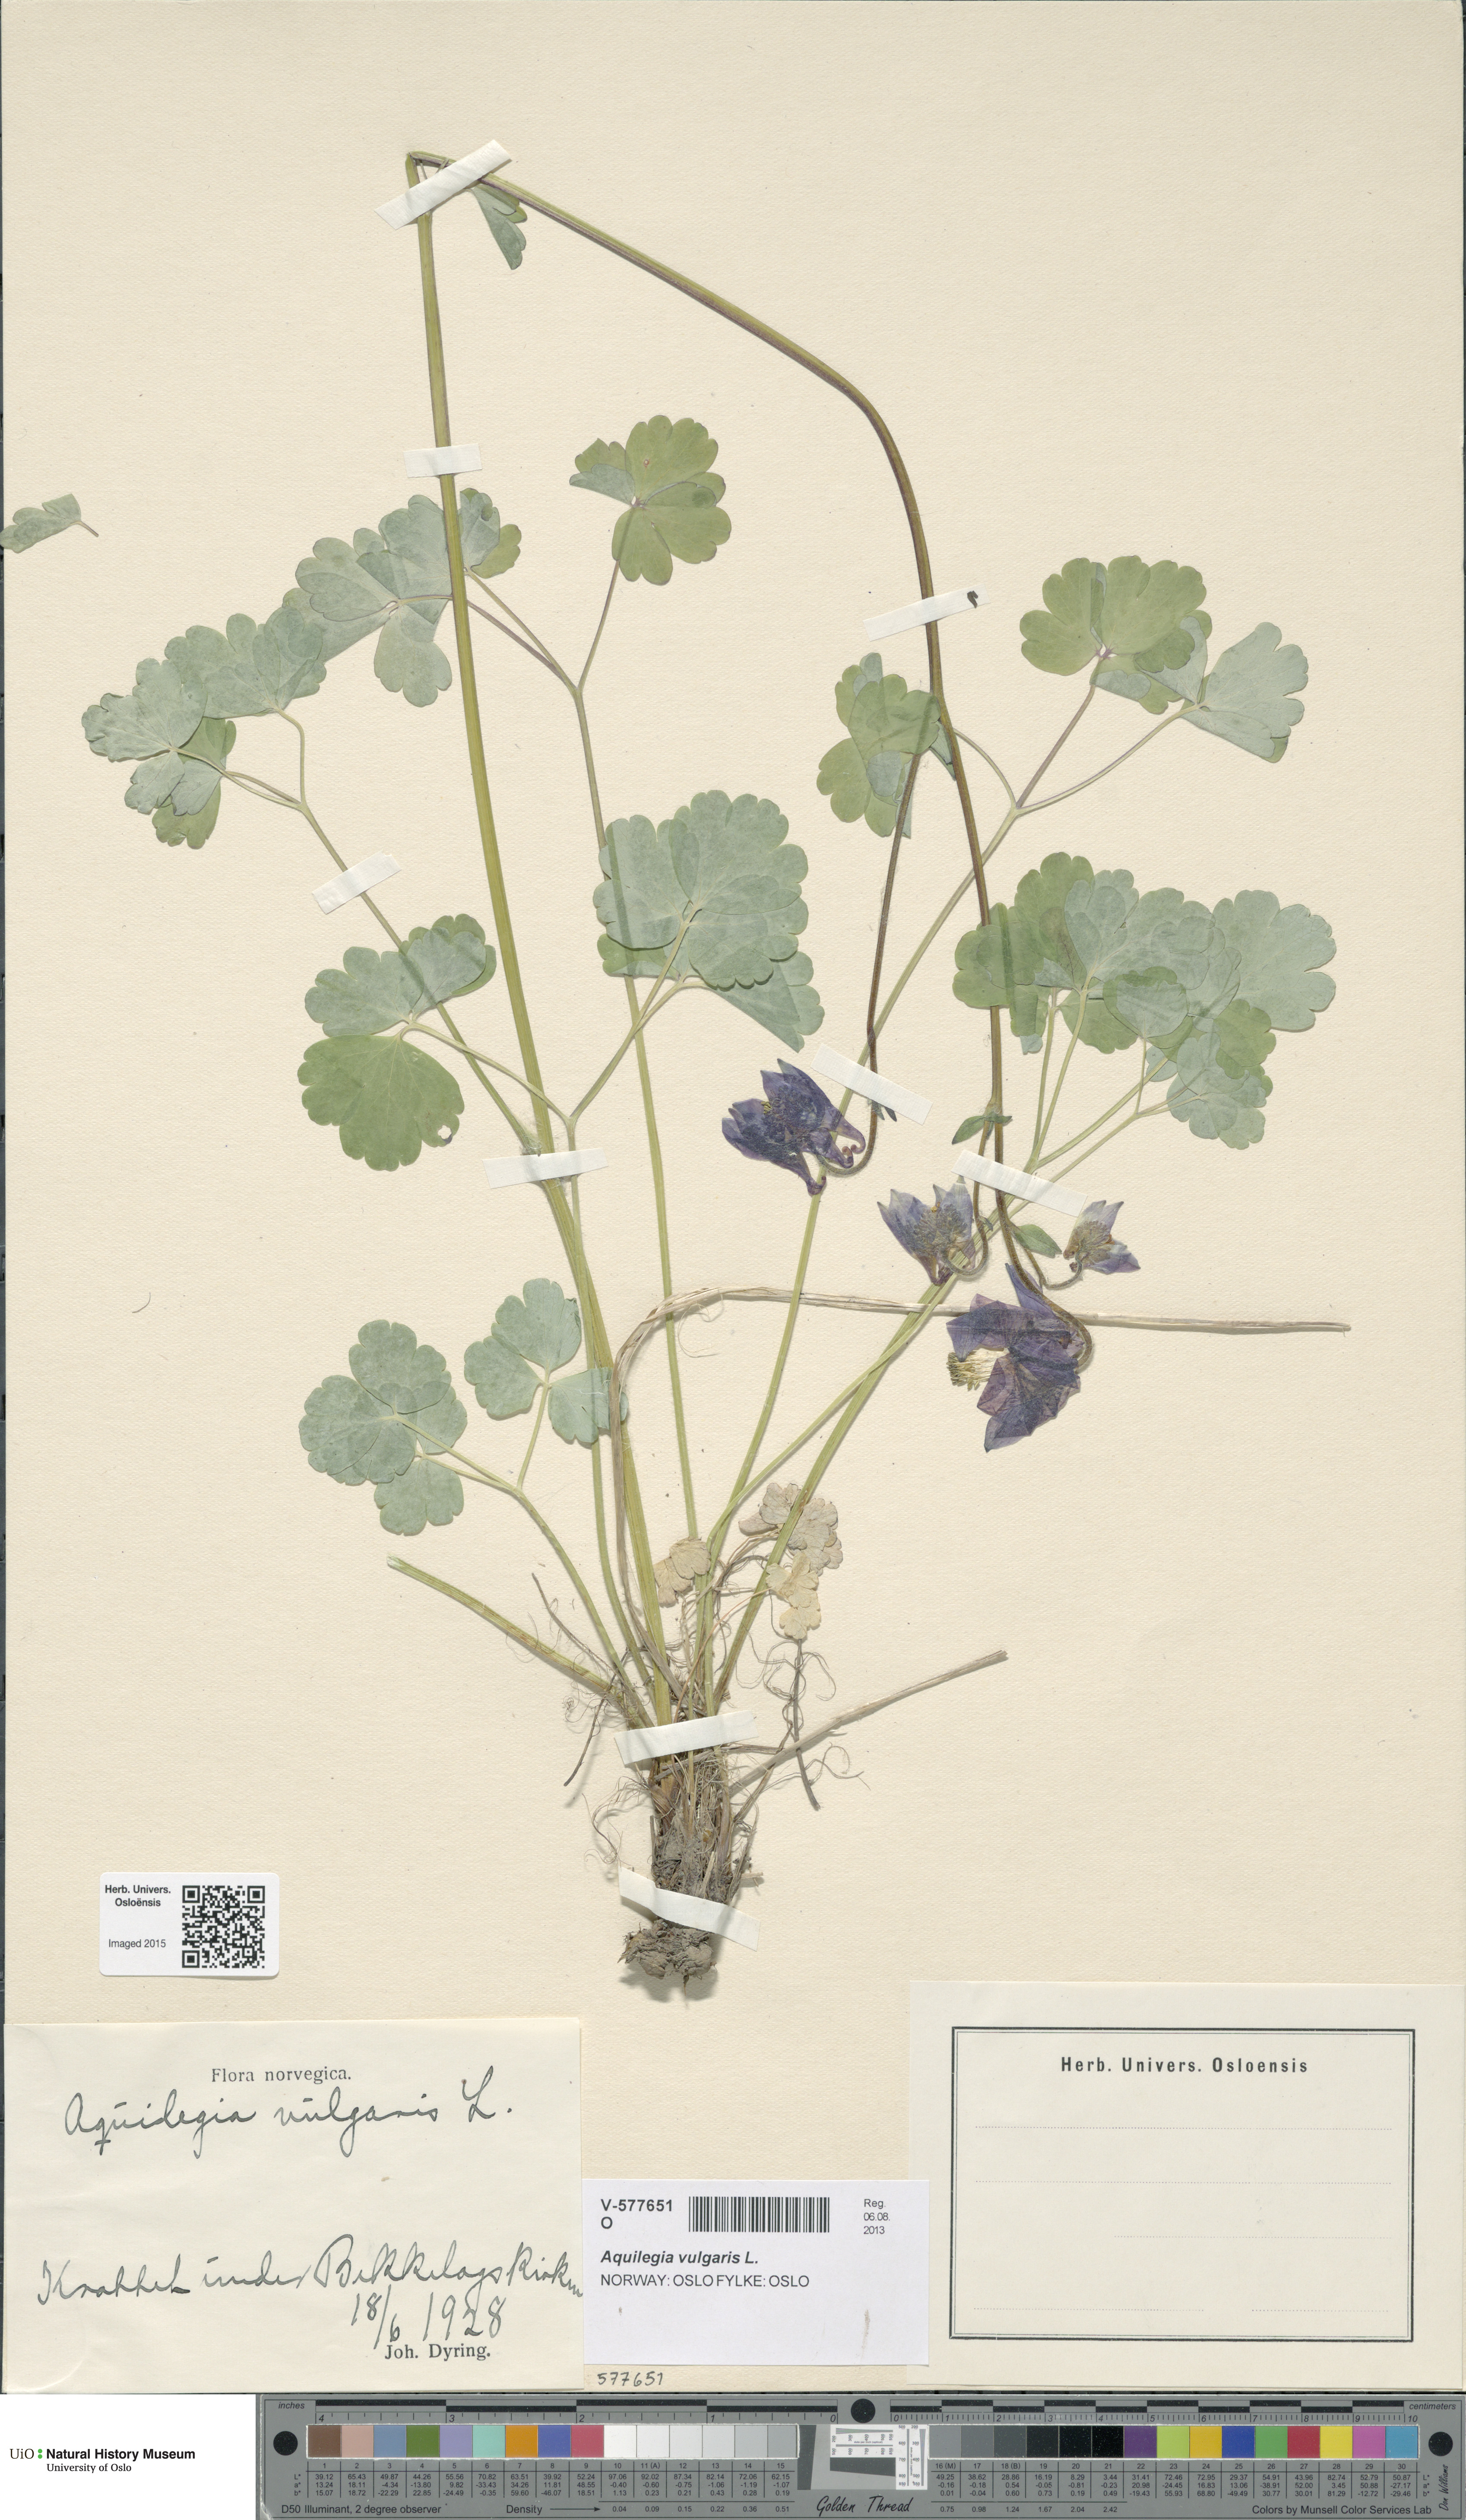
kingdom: Plantae
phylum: Tracheophyta
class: Magnoliopsida
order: Ranunculales
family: Ranunculaceae
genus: Aquilegia
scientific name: Aquilegia vulgaris
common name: Columbine
